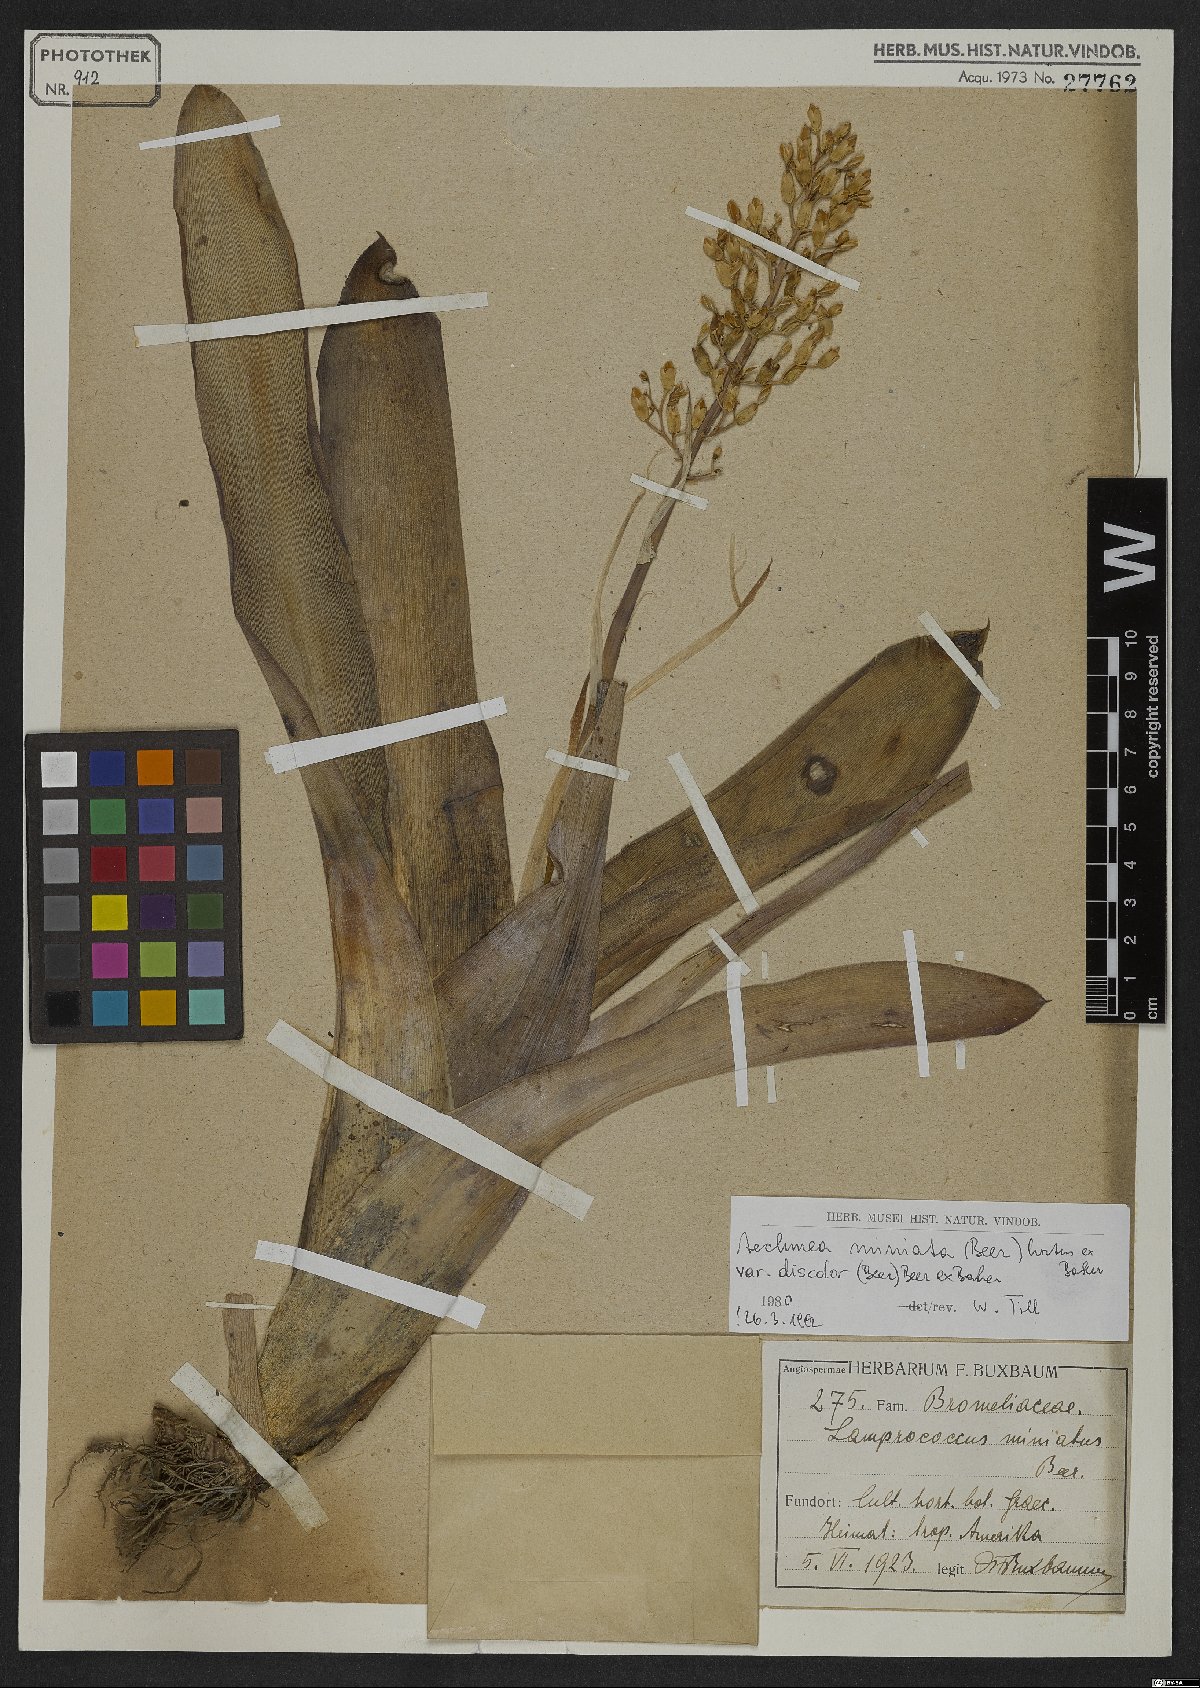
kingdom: Plantae
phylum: Tracheophyta
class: Liliopsida
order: Poales
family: Bromeliaceae
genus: Aechmea
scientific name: Aechmea miniata
